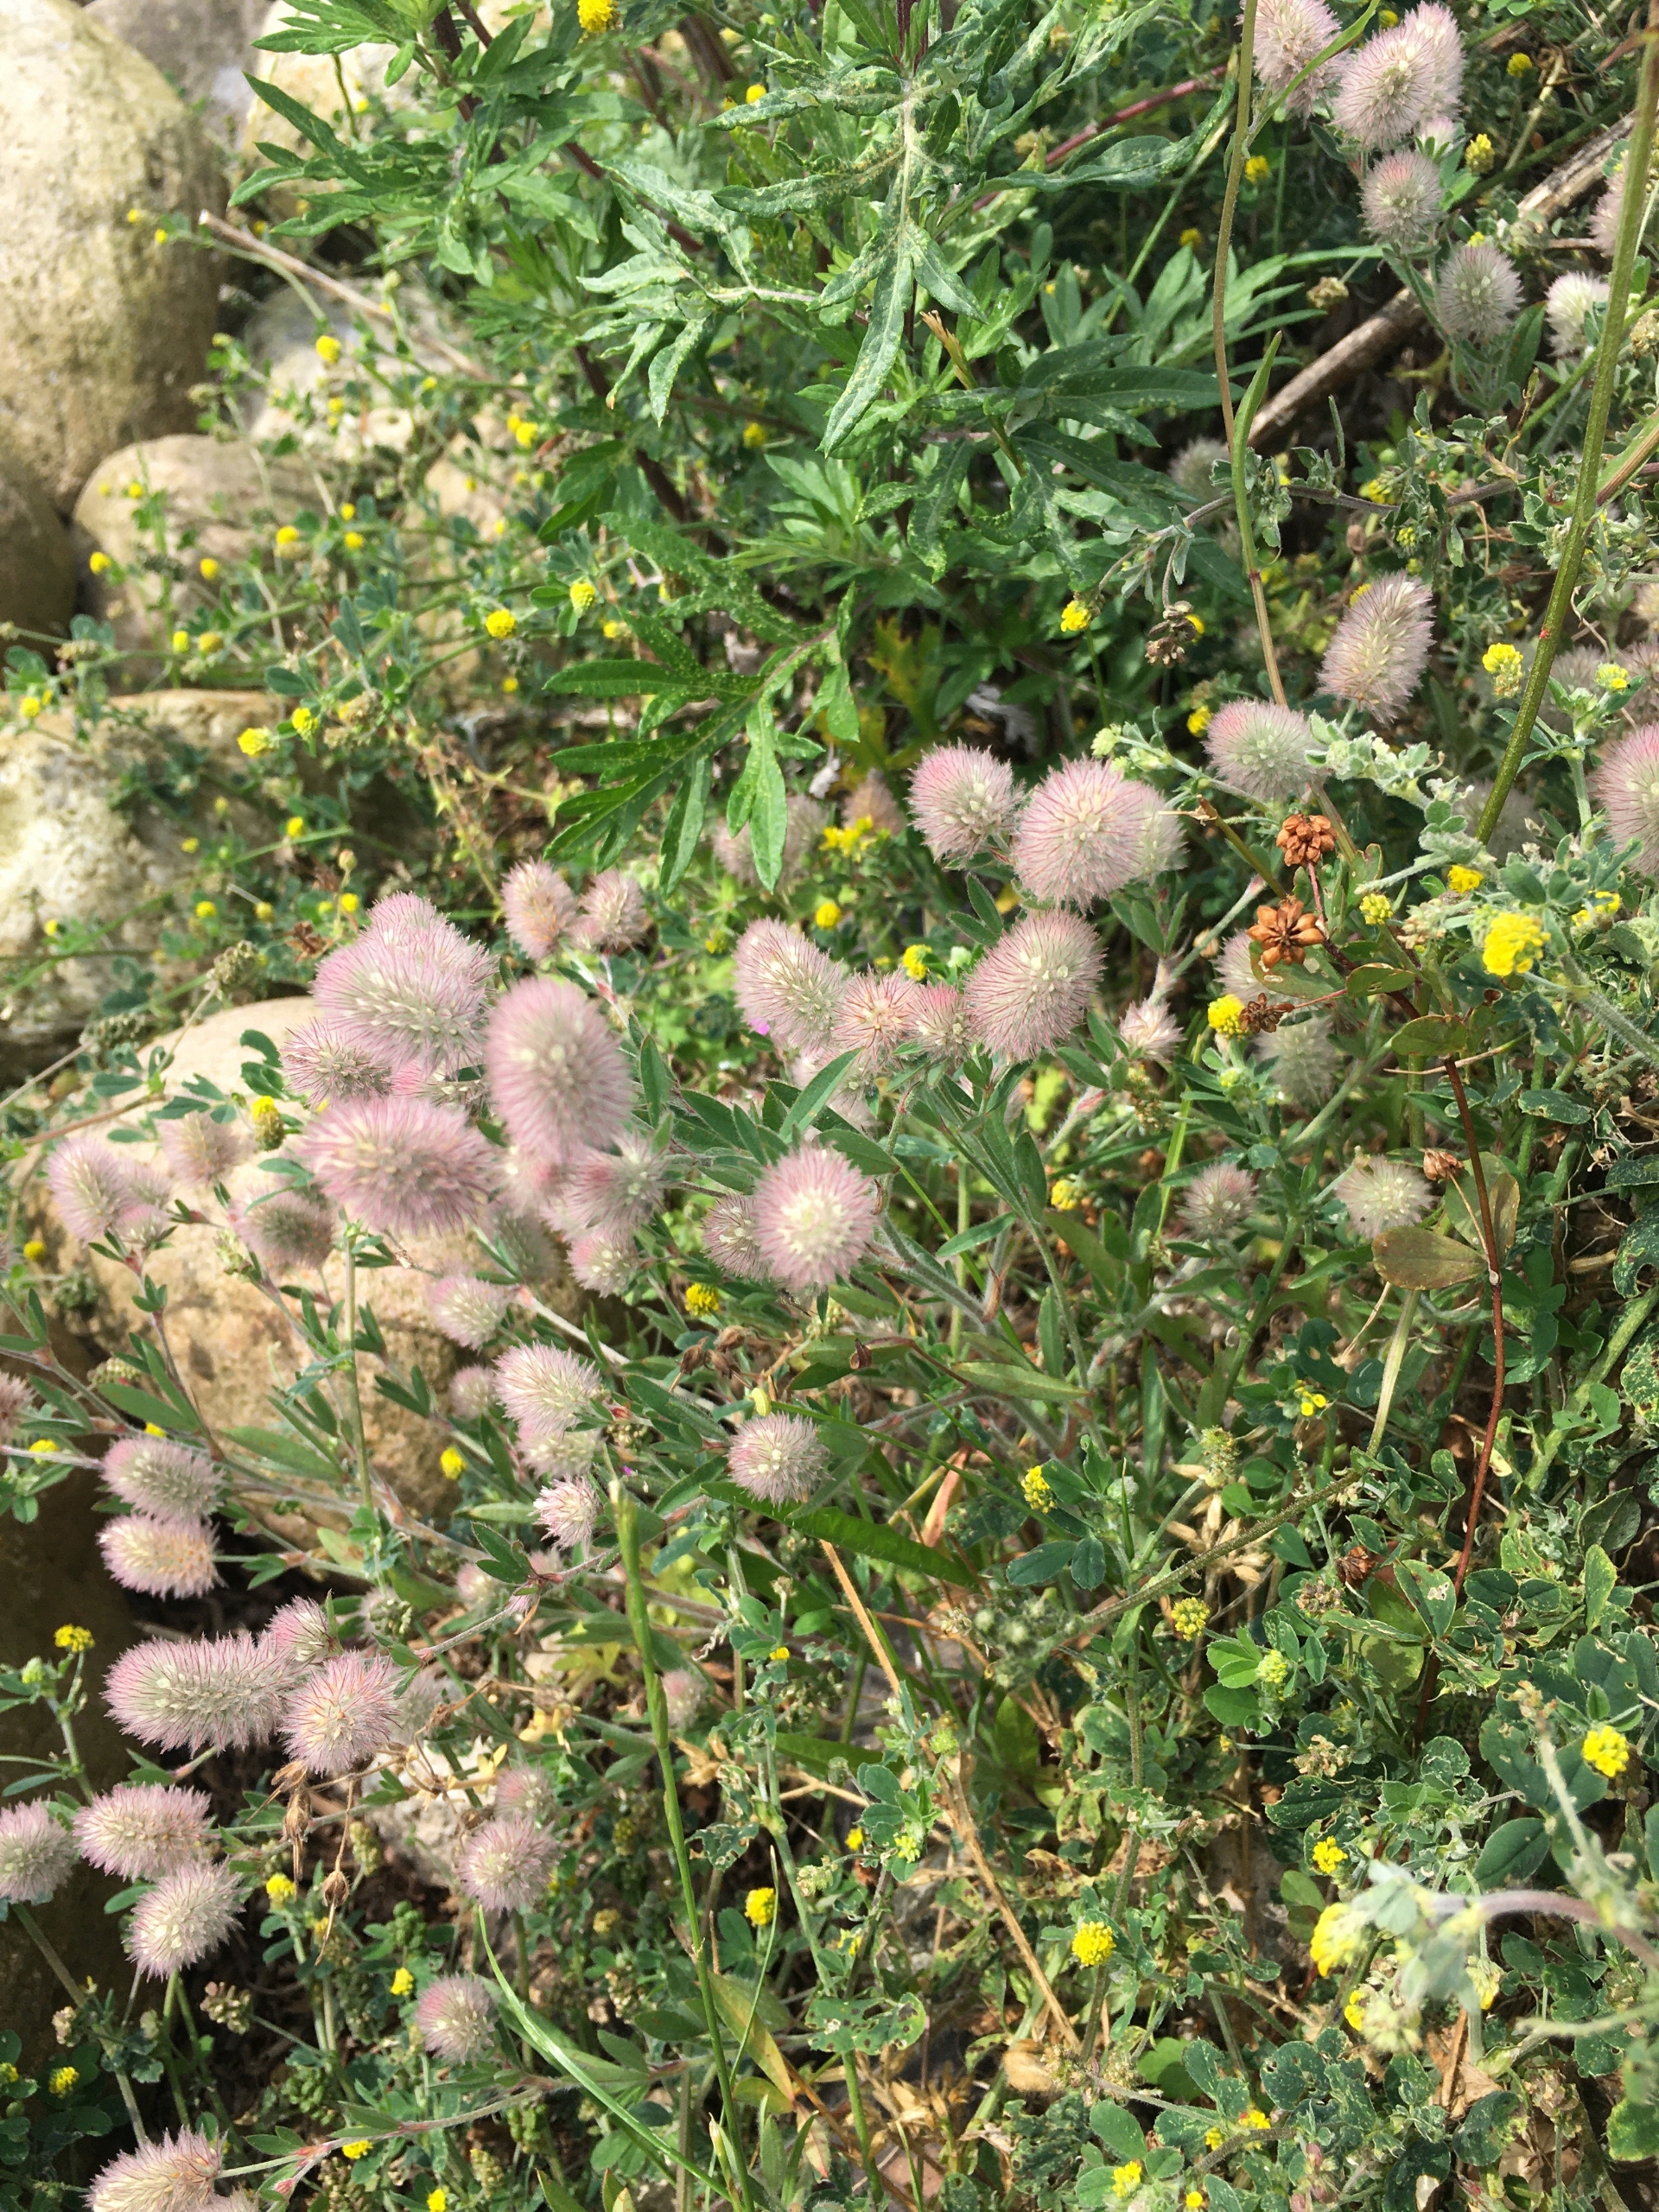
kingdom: Plantae
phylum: Tracheophyta
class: Magnoliopsida
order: Fabales
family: Fabaceae
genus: Trifolium
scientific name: Trifolium arvense
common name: Hare-kløver
